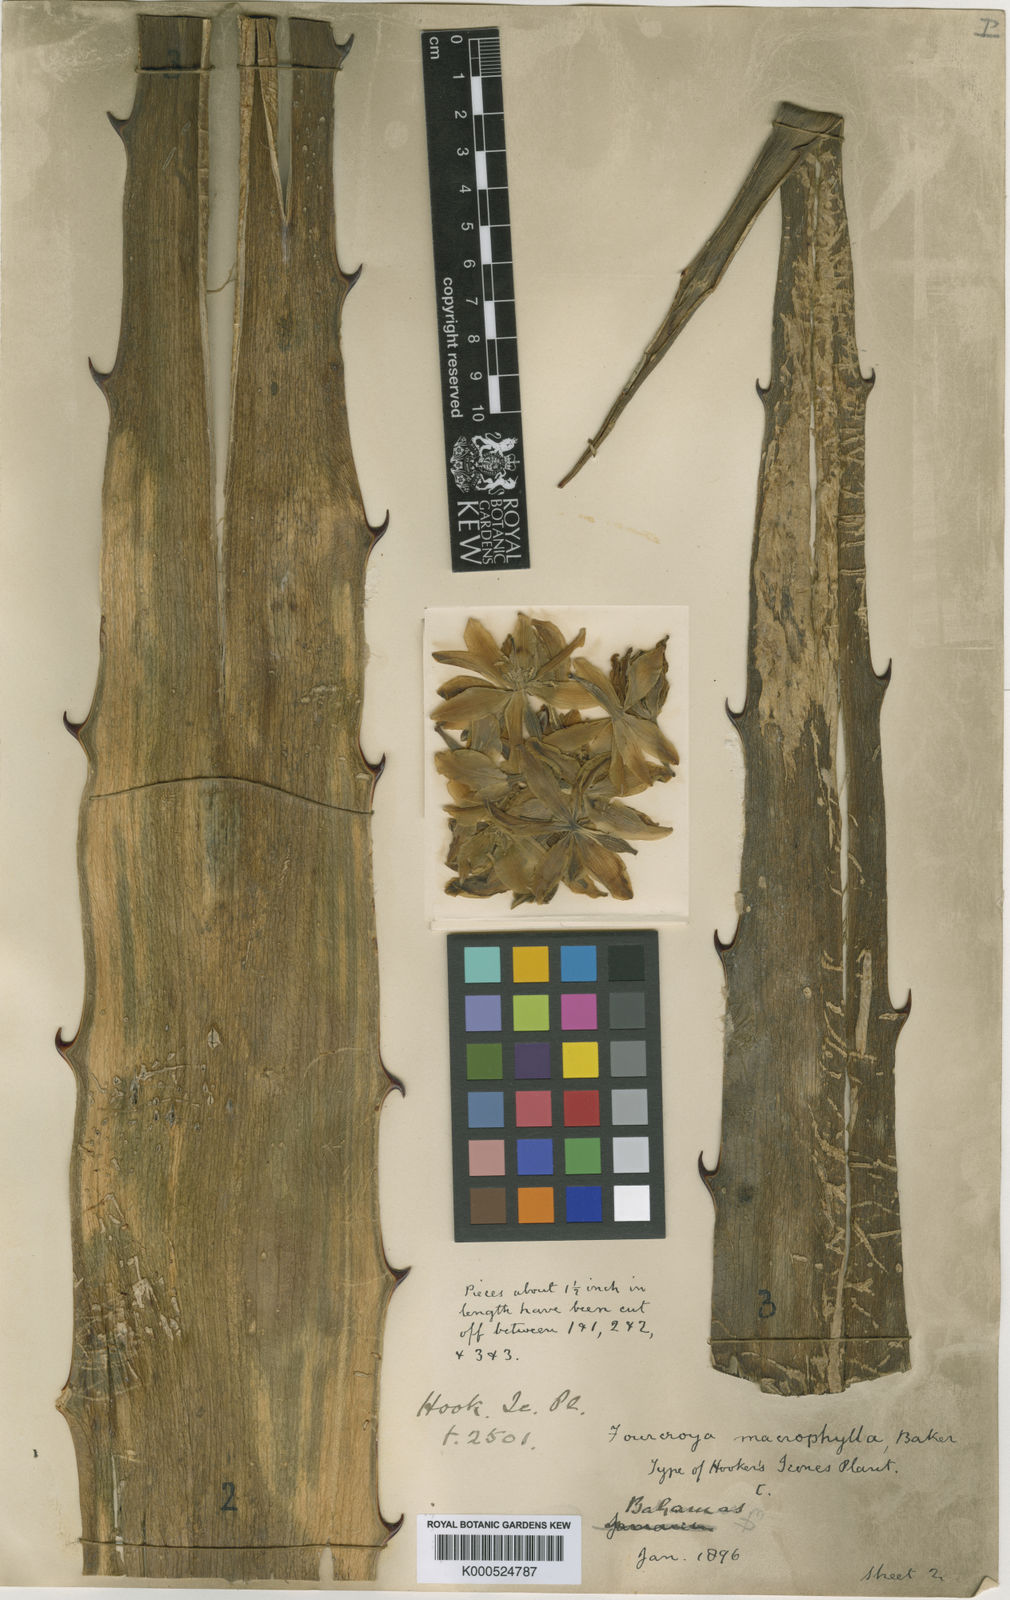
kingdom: Plantae
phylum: Tracheophyta
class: Liliopsida
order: Asparagales
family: Asparagaceae
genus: Furcraea
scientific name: Furcraea hexapetala
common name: Cuban-hemp
